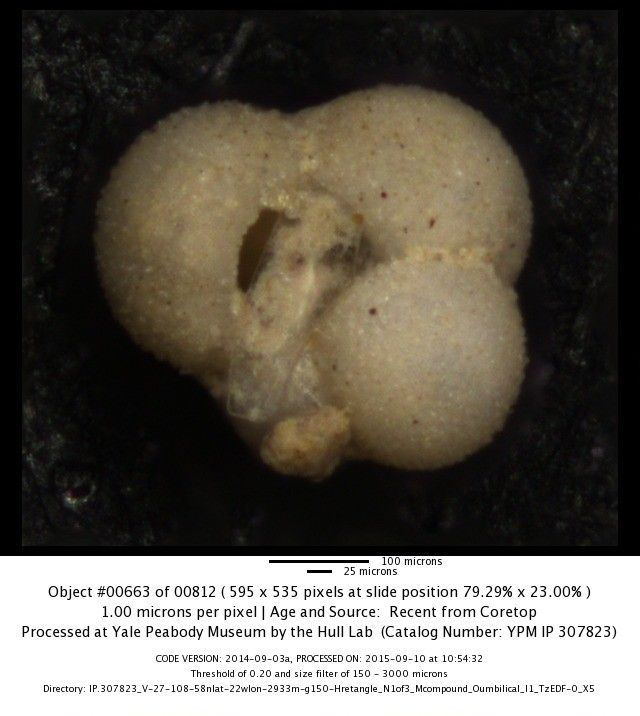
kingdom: Chromista
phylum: Foraminifera
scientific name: Foraminifera
